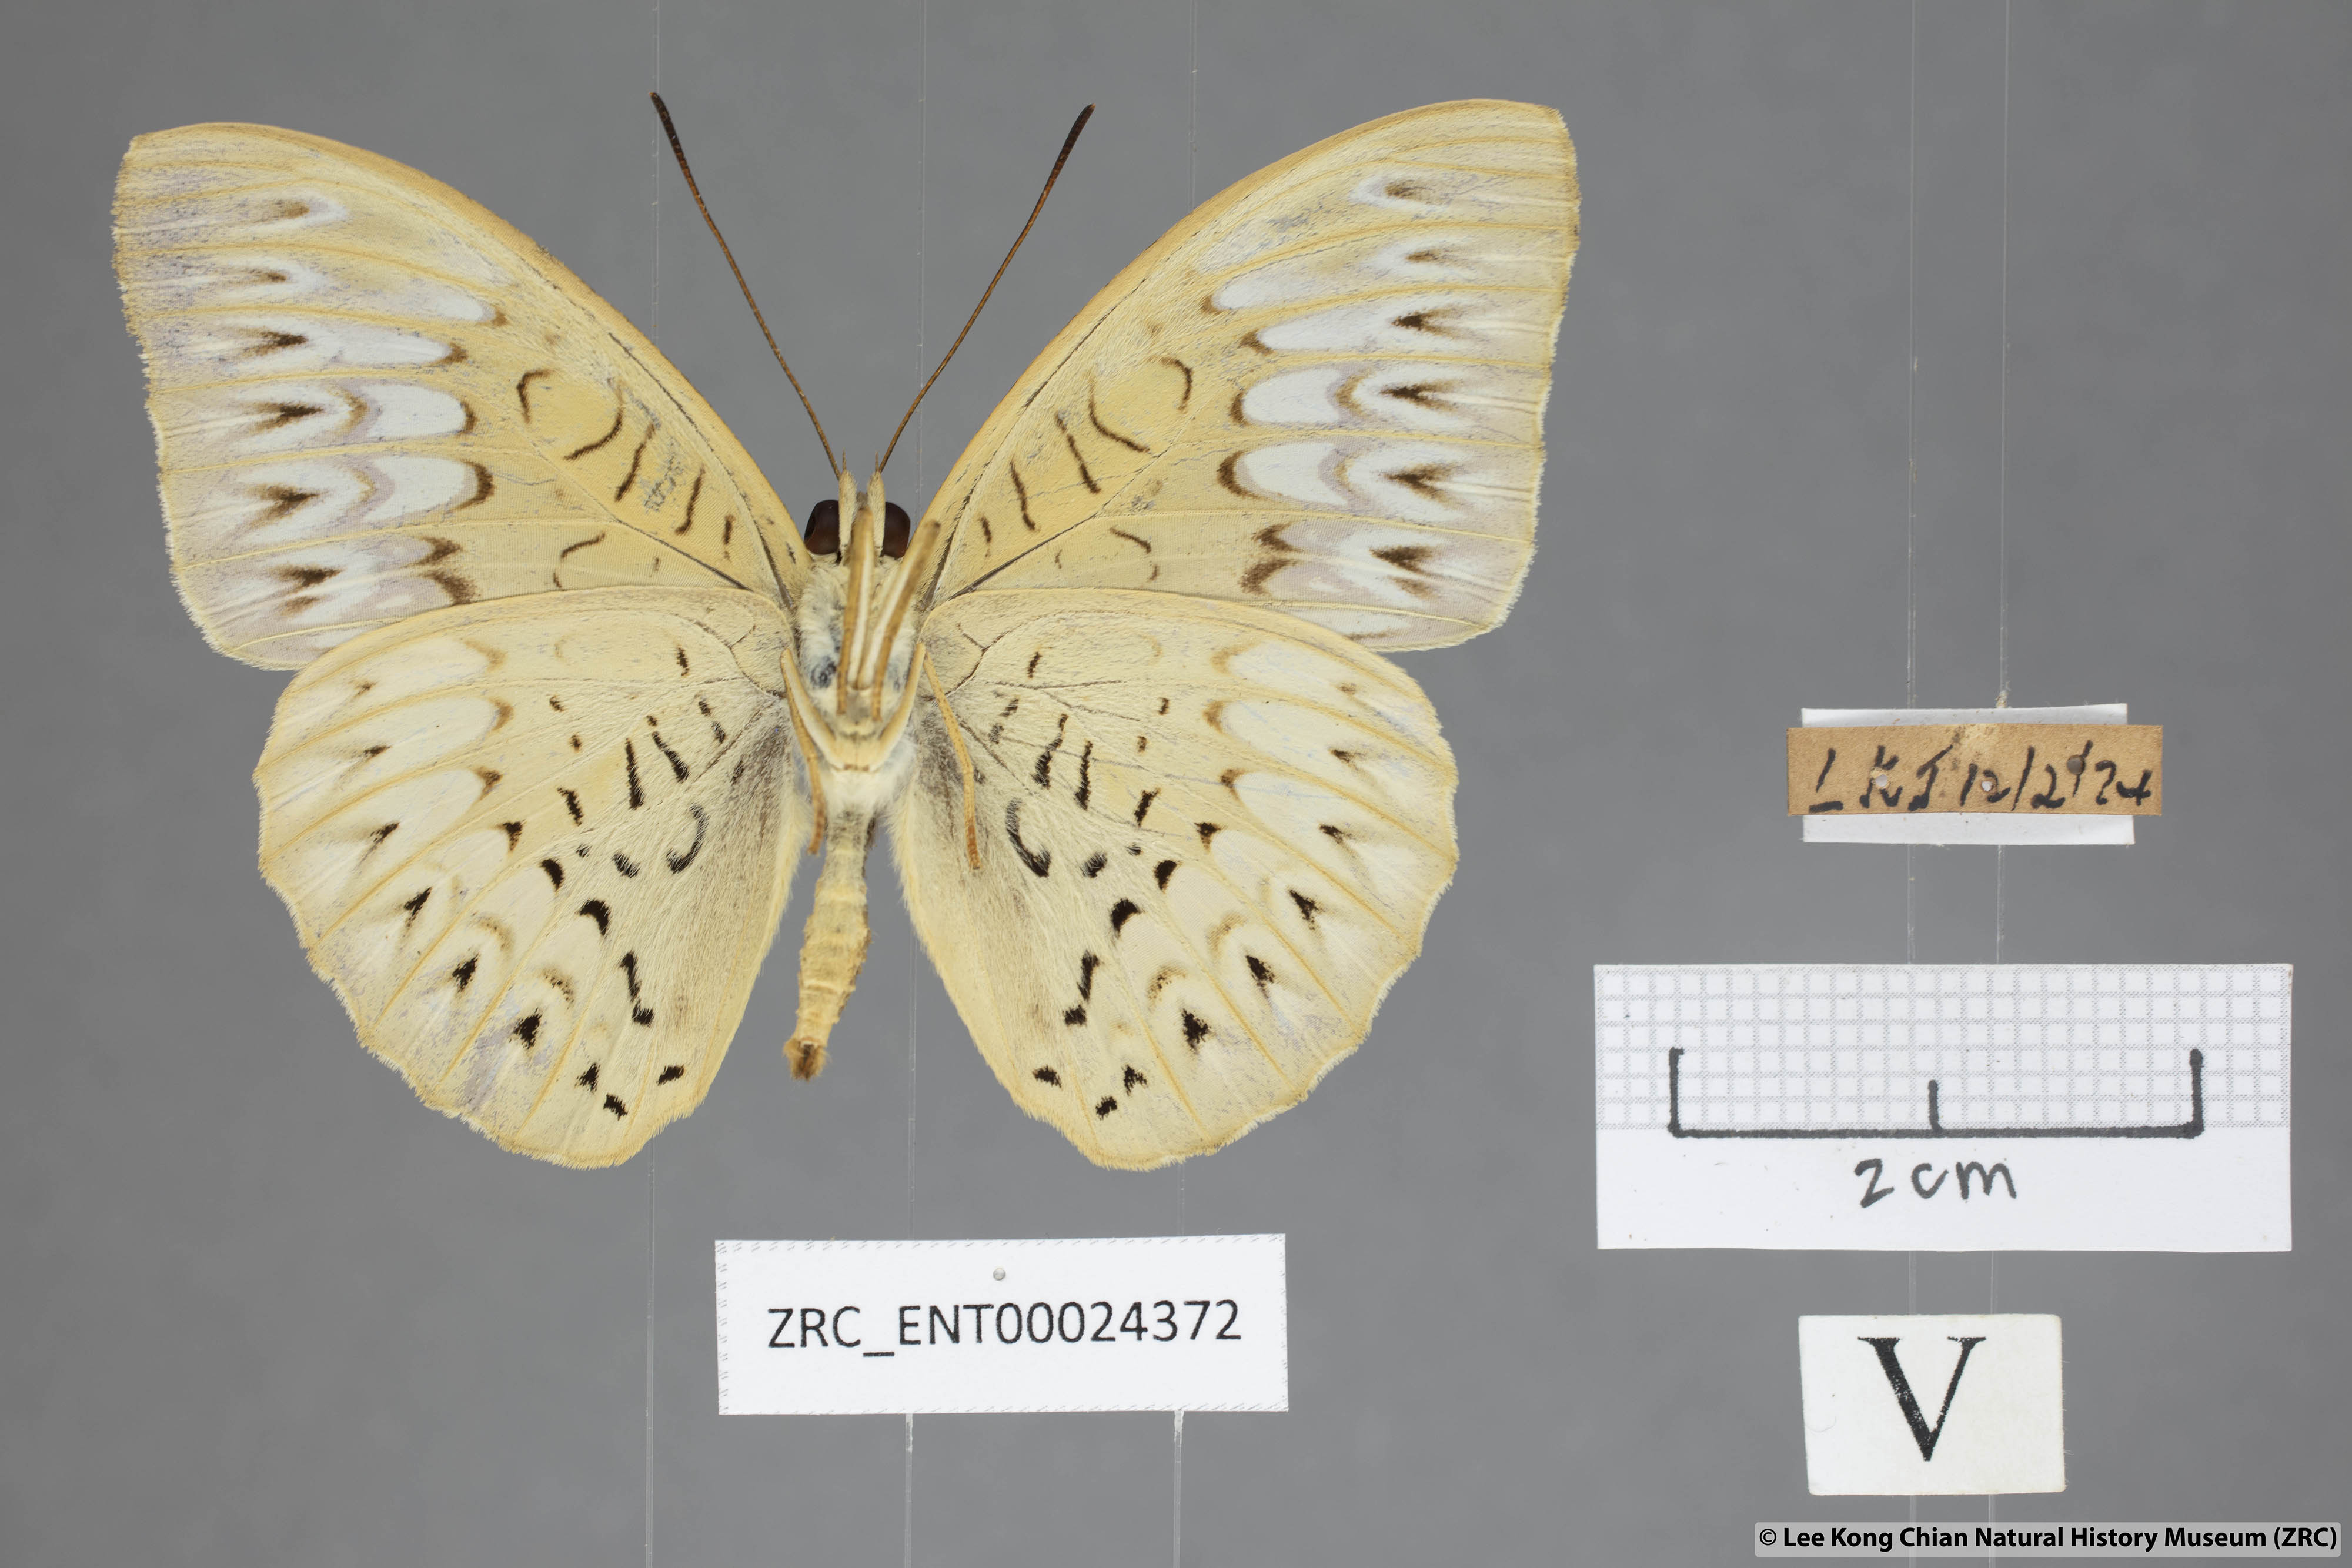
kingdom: Animalia
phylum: Arthropoda
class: Insecta
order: Lepidoptera
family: Nymphalidae
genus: Tanaecia
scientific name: Tanaecia aruna
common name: Short-banded viscount
